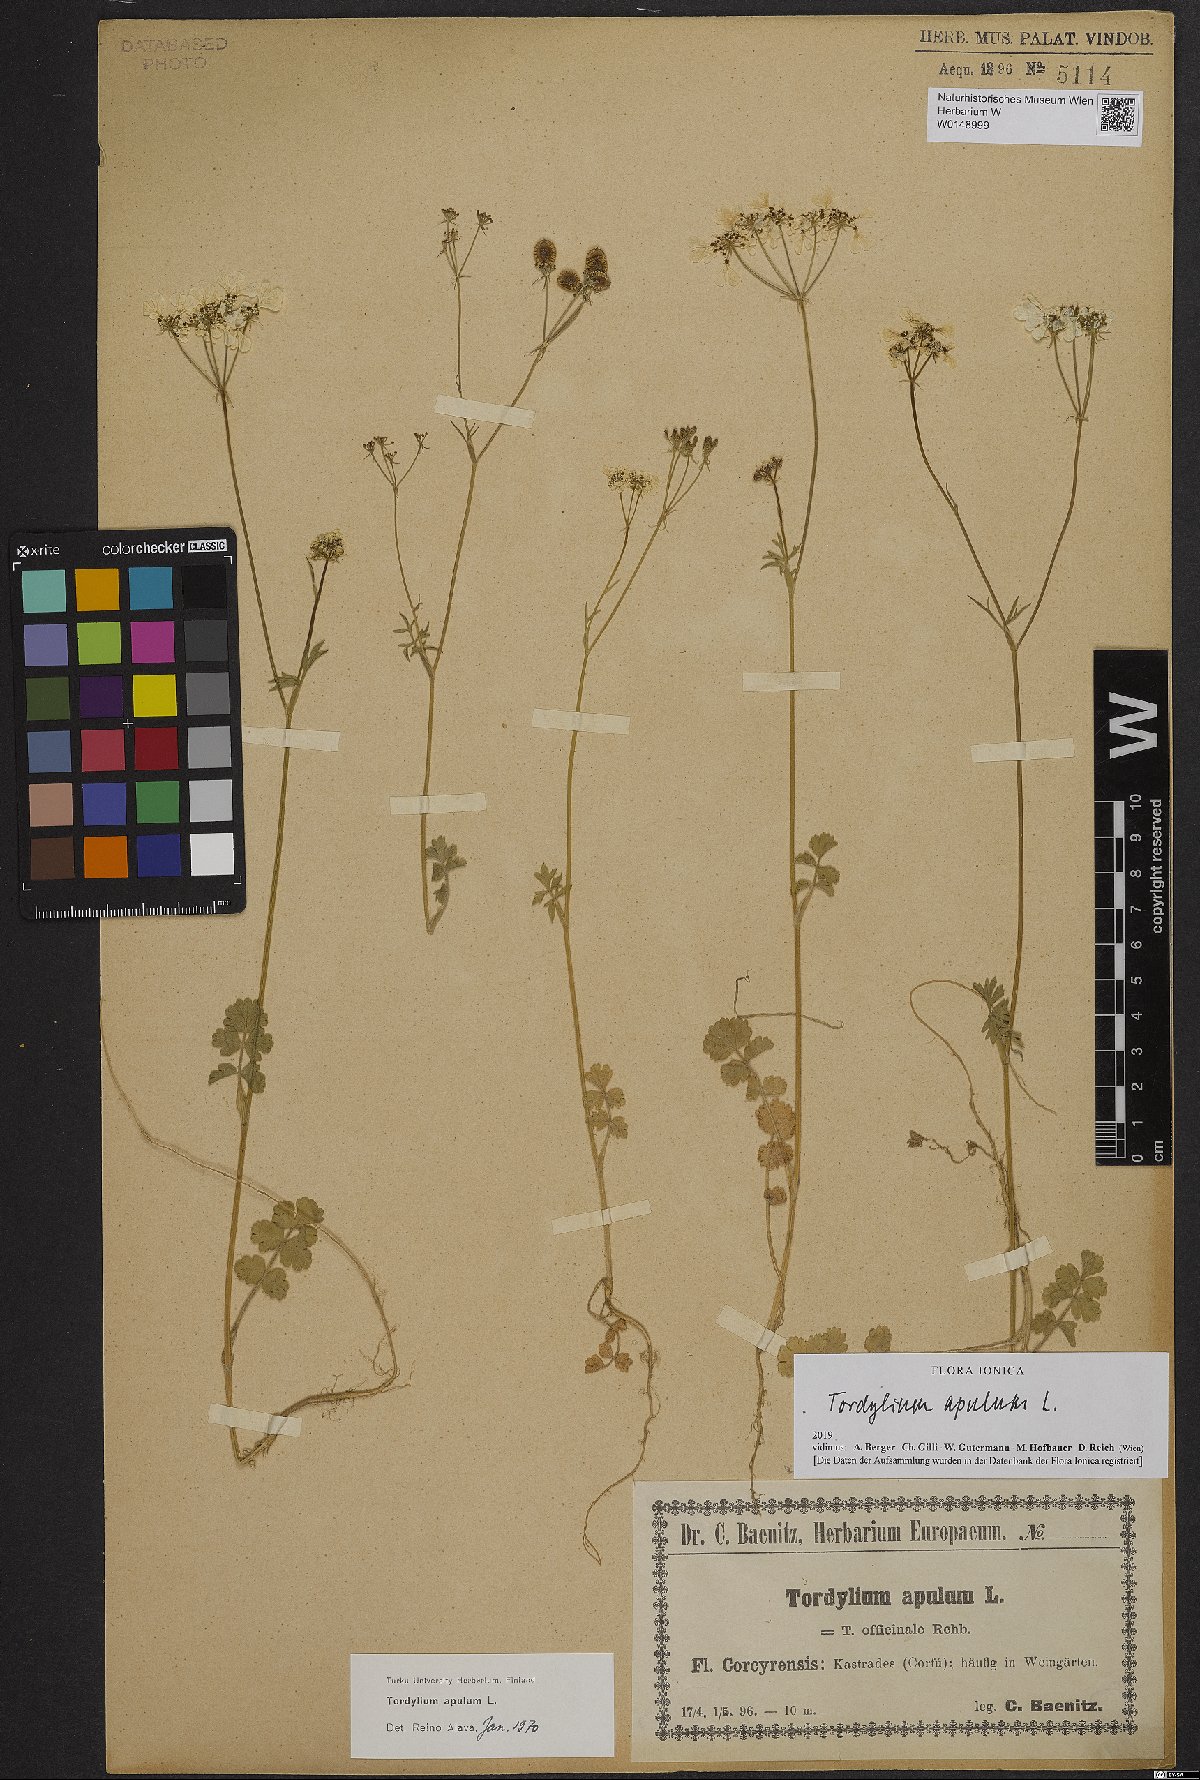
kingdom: Plantae
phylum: Tracheophyta
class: Magnoliopsida
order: Apiales
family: Apiaceae
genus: Tordylium
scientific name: Tordylium apulum
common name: Mediterranean hartwort
